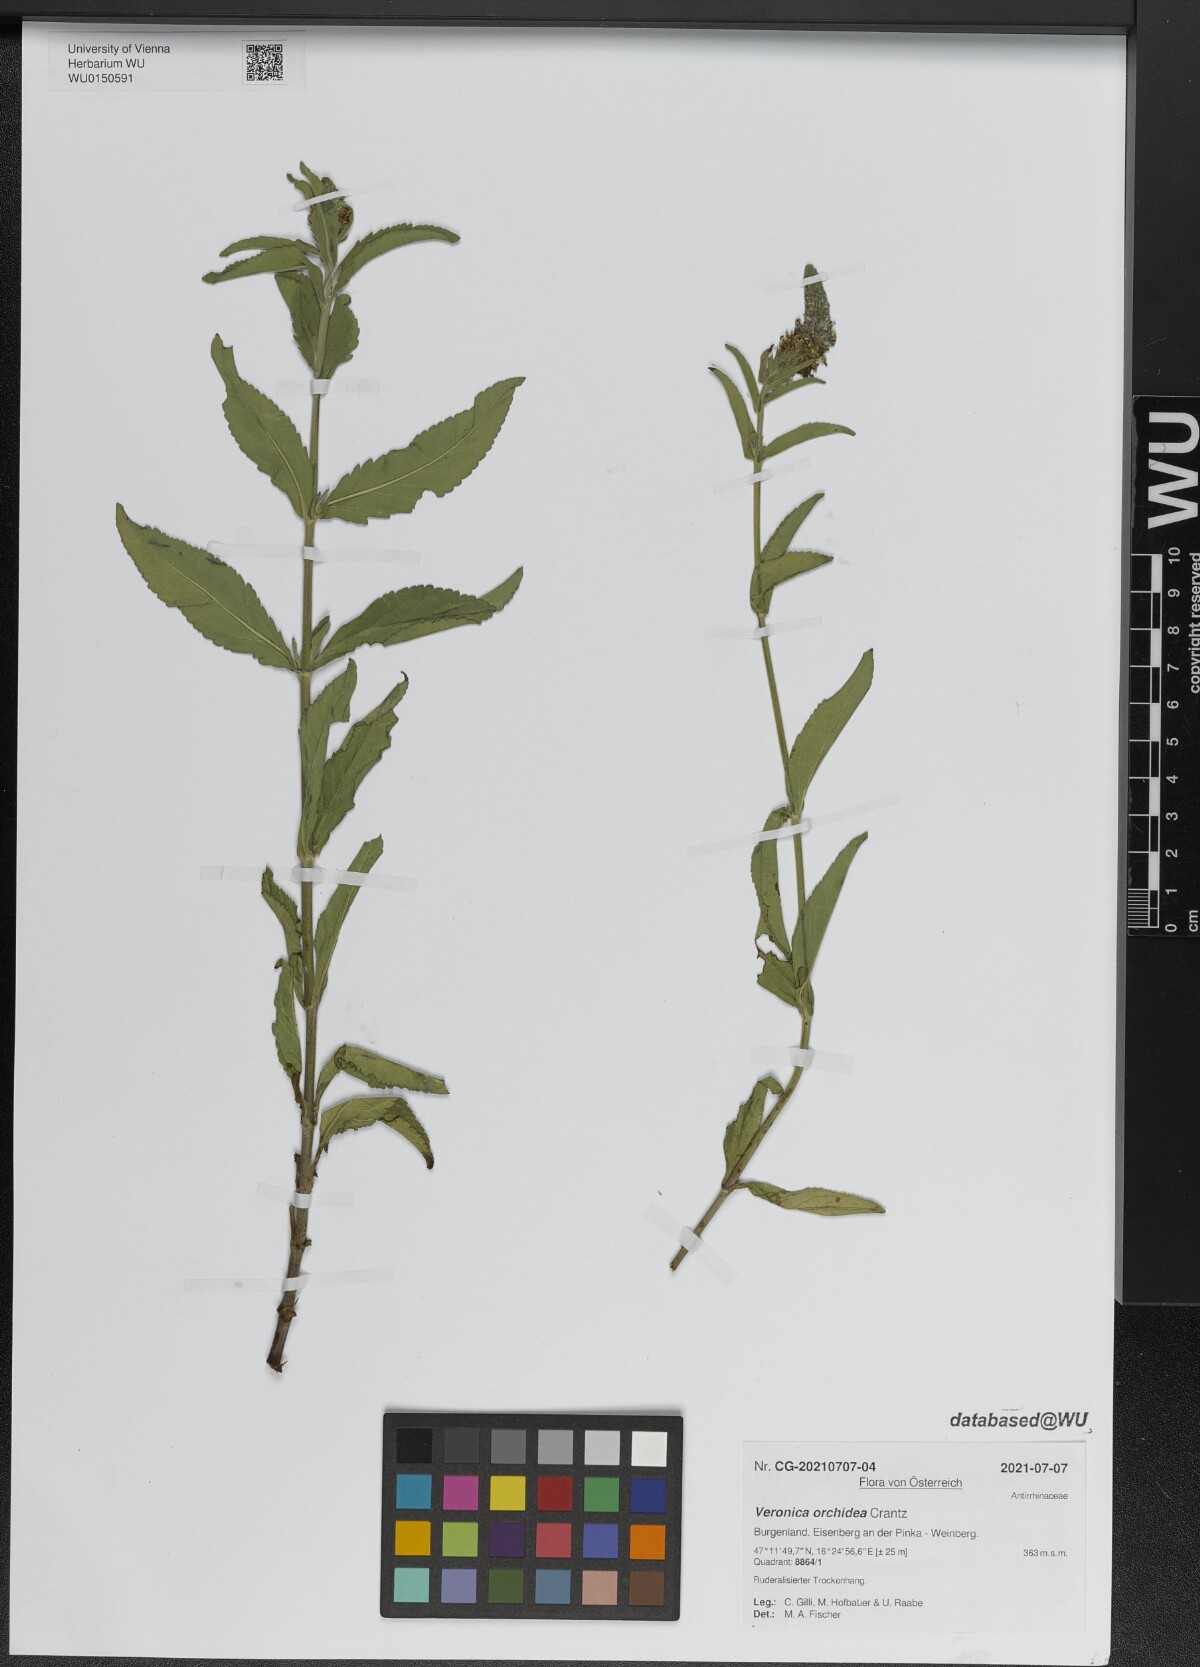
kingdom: Plantae
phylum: Tracheophyta
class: Magnoliopsida
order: Lamiales
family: Plantaginaceae
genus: Veronica
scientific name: Veronica orchidea
